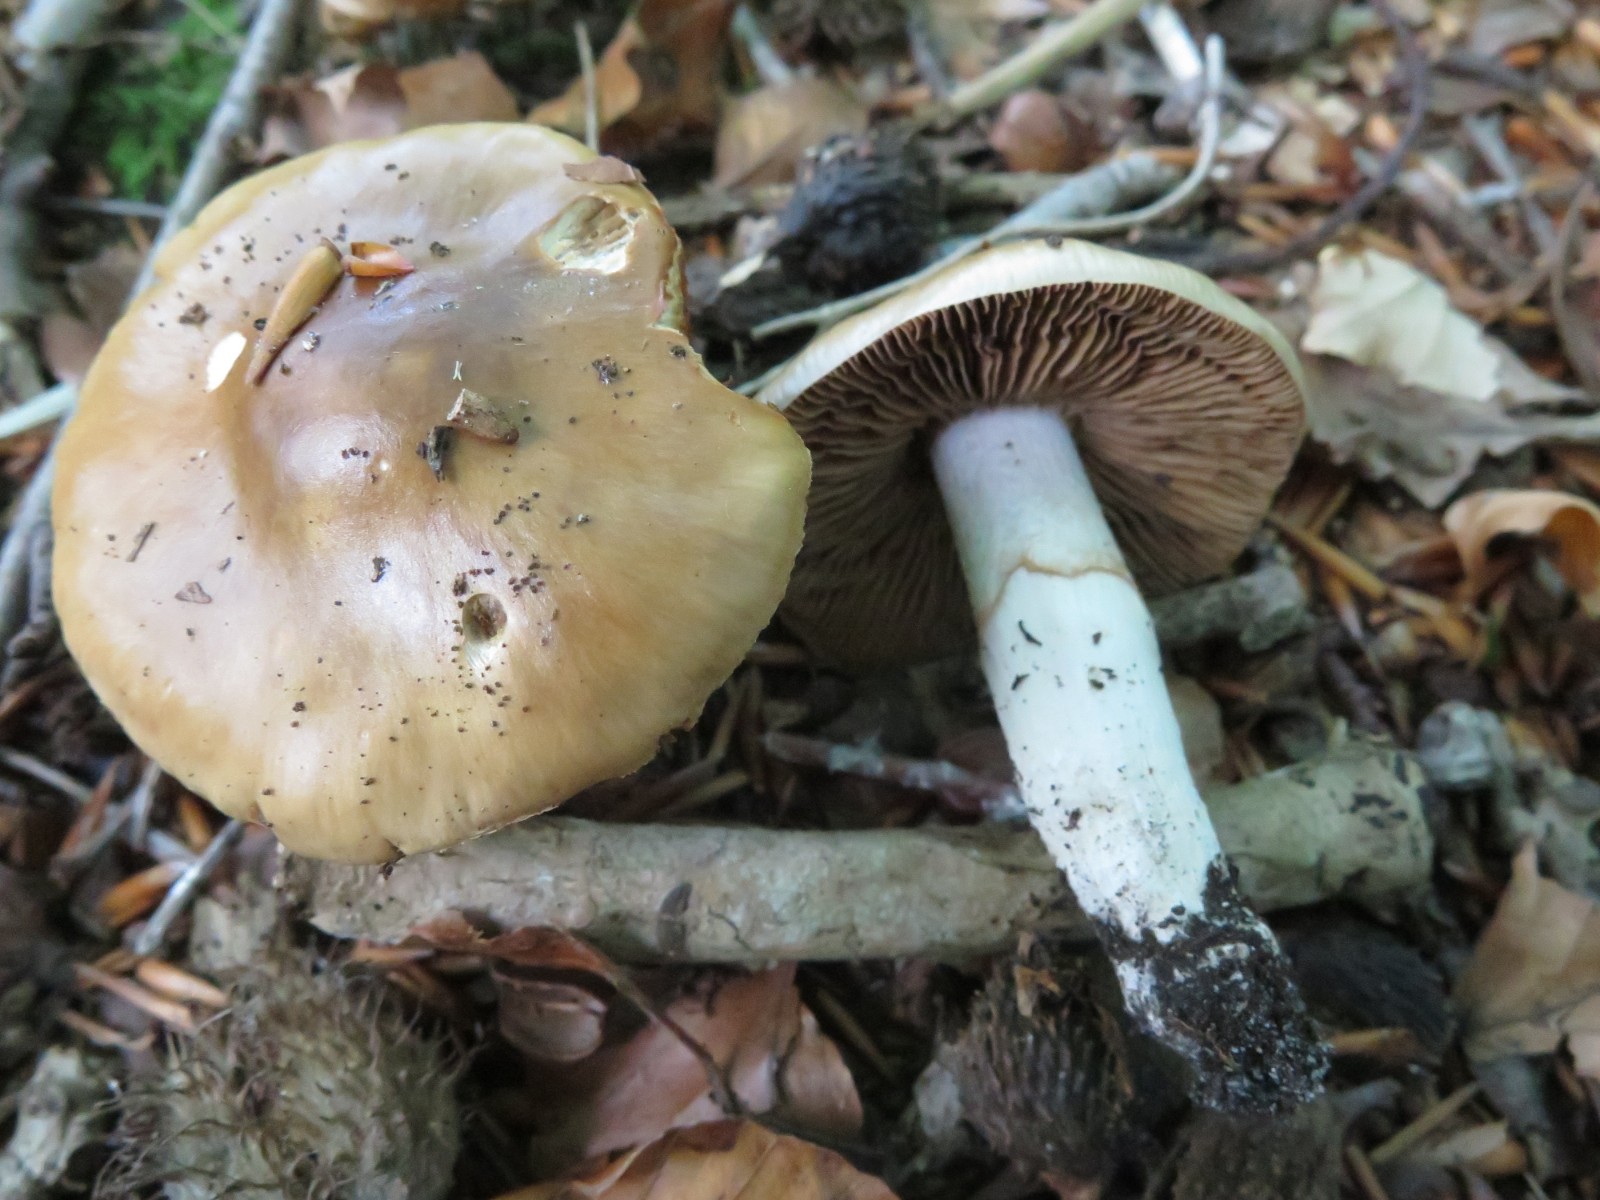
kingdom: Fungi
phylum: Basidiomycota
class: Agaricomycetes
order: Agaricales
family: Cortinariaceae
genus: Cortinarius
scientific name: Cortinarius elatior
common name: høj slørhat
